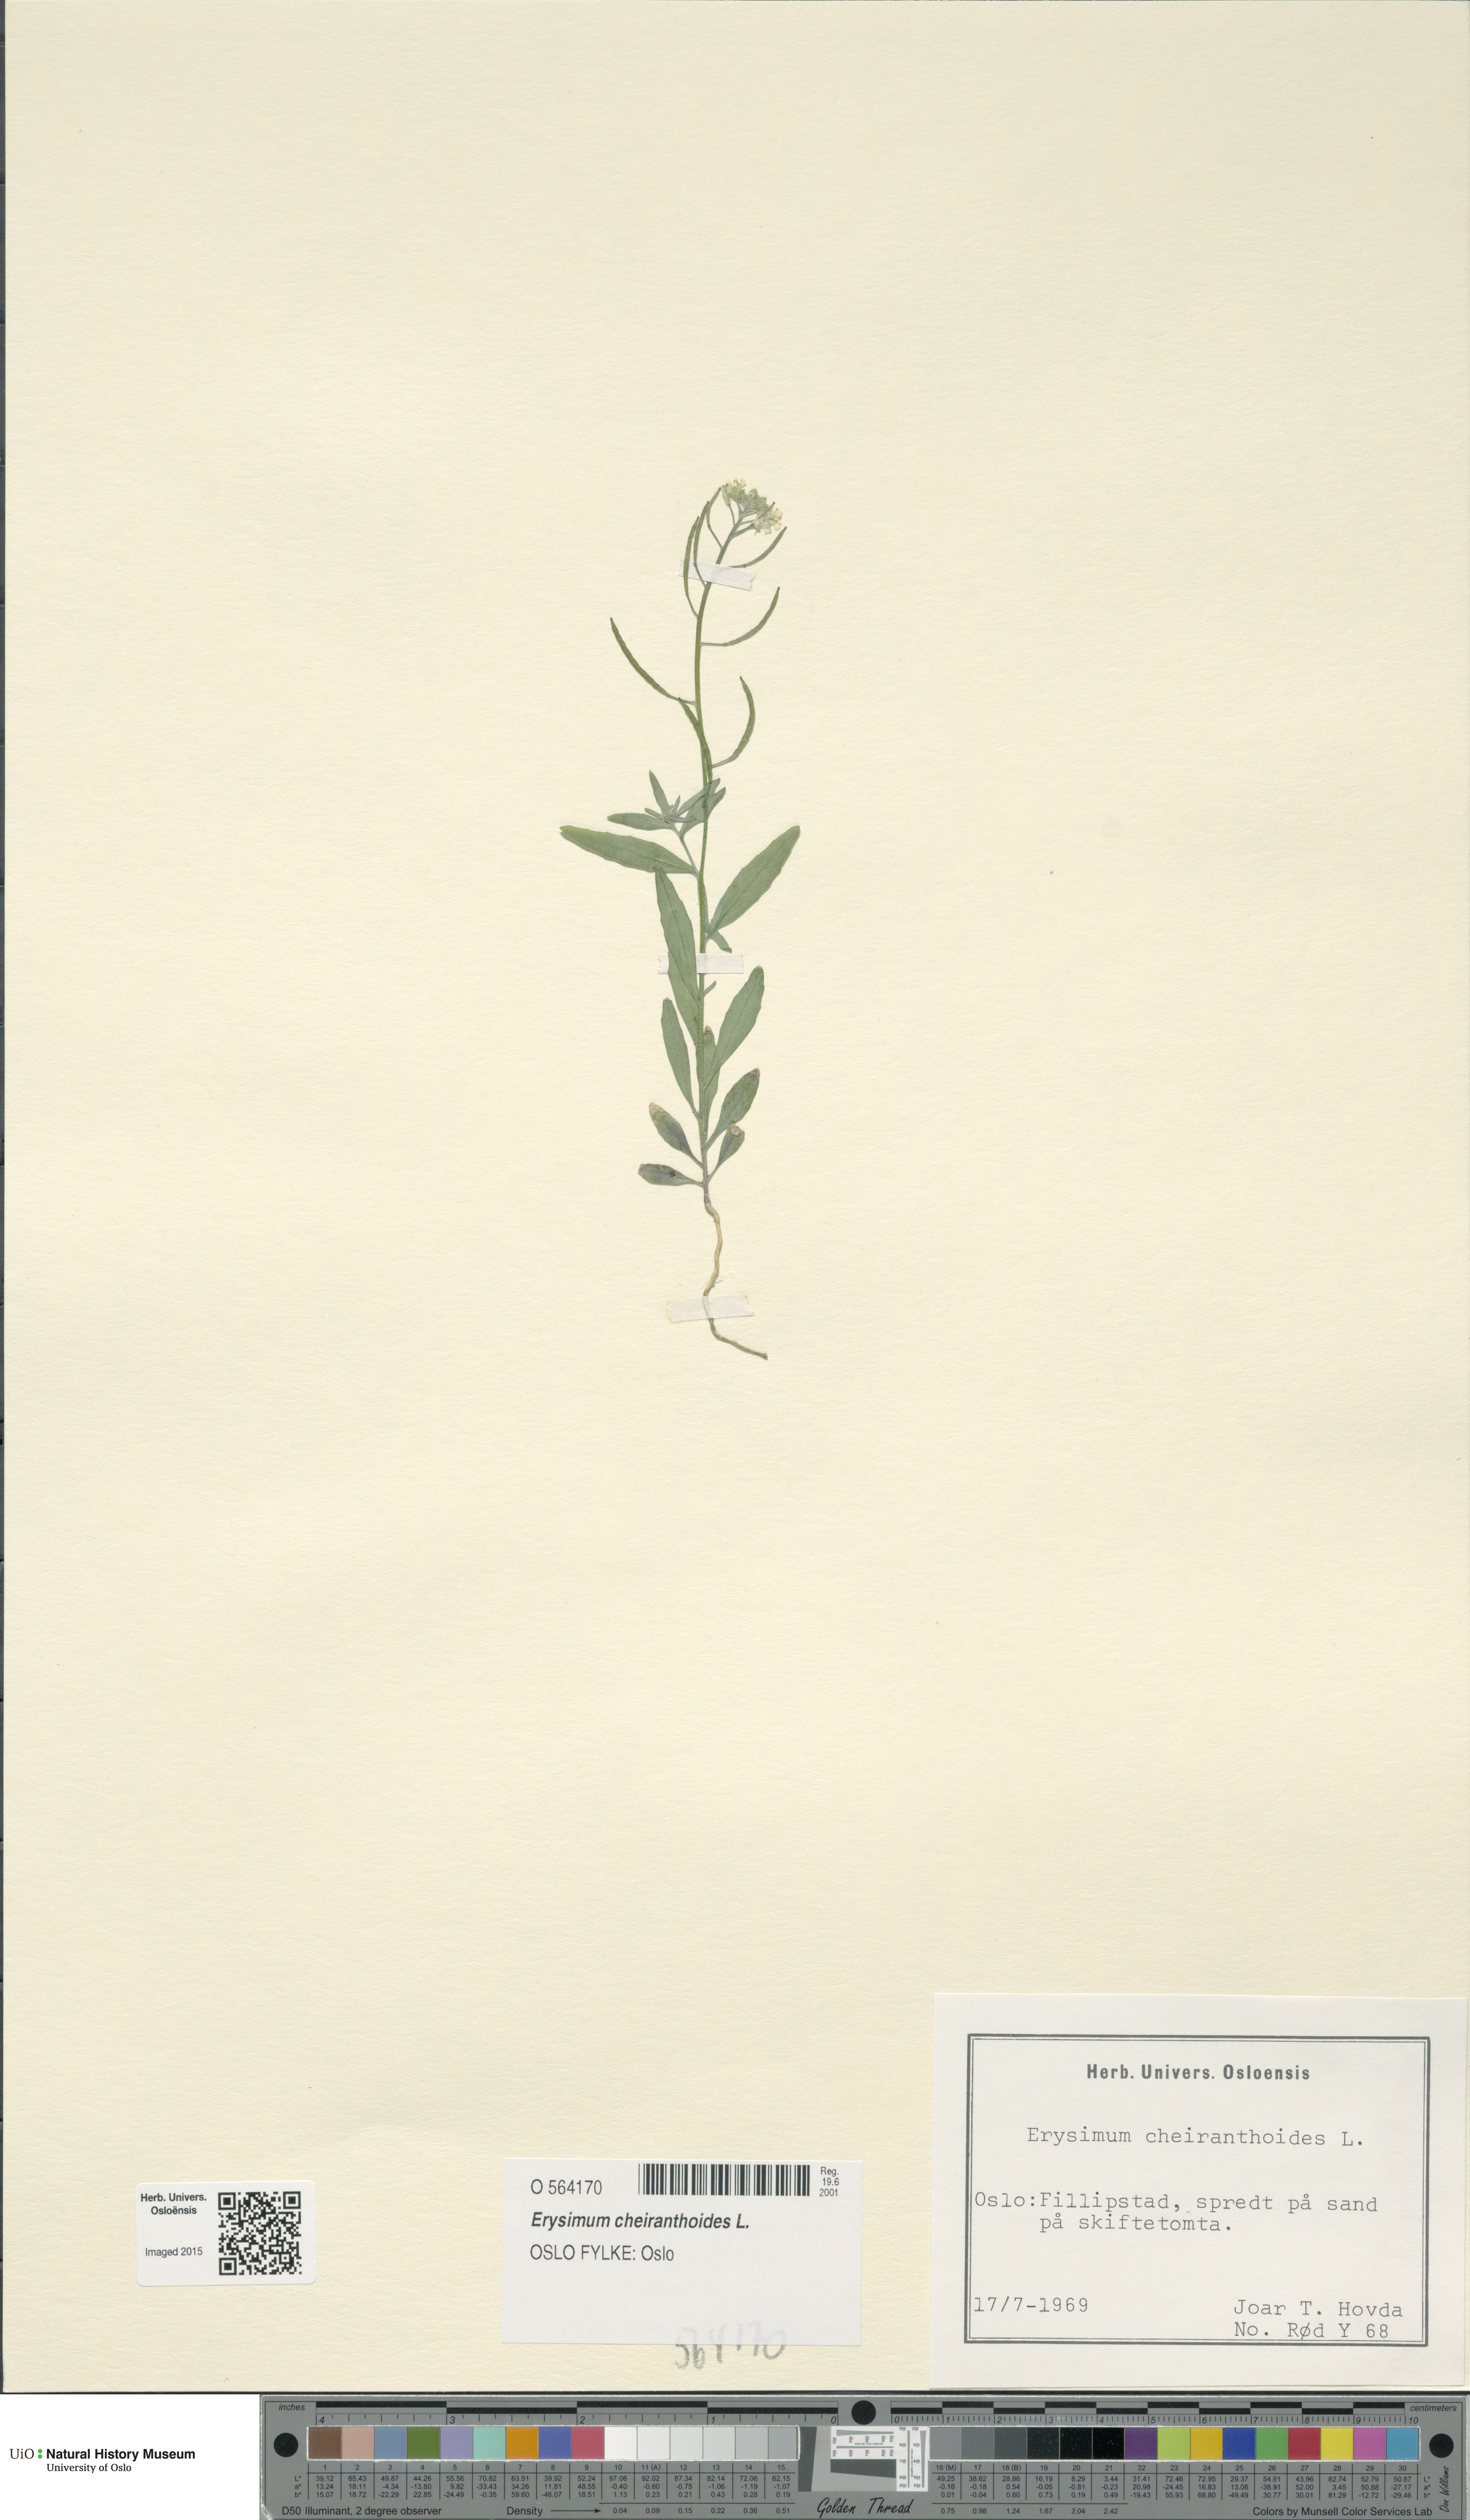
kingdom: Plantae
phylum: Tracheophyta
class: Magnoliopsida
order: Brassicales
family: Brassicaceae
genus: Erysimum
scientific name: Erysimum cheiranthoides
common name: Treacle mustard
